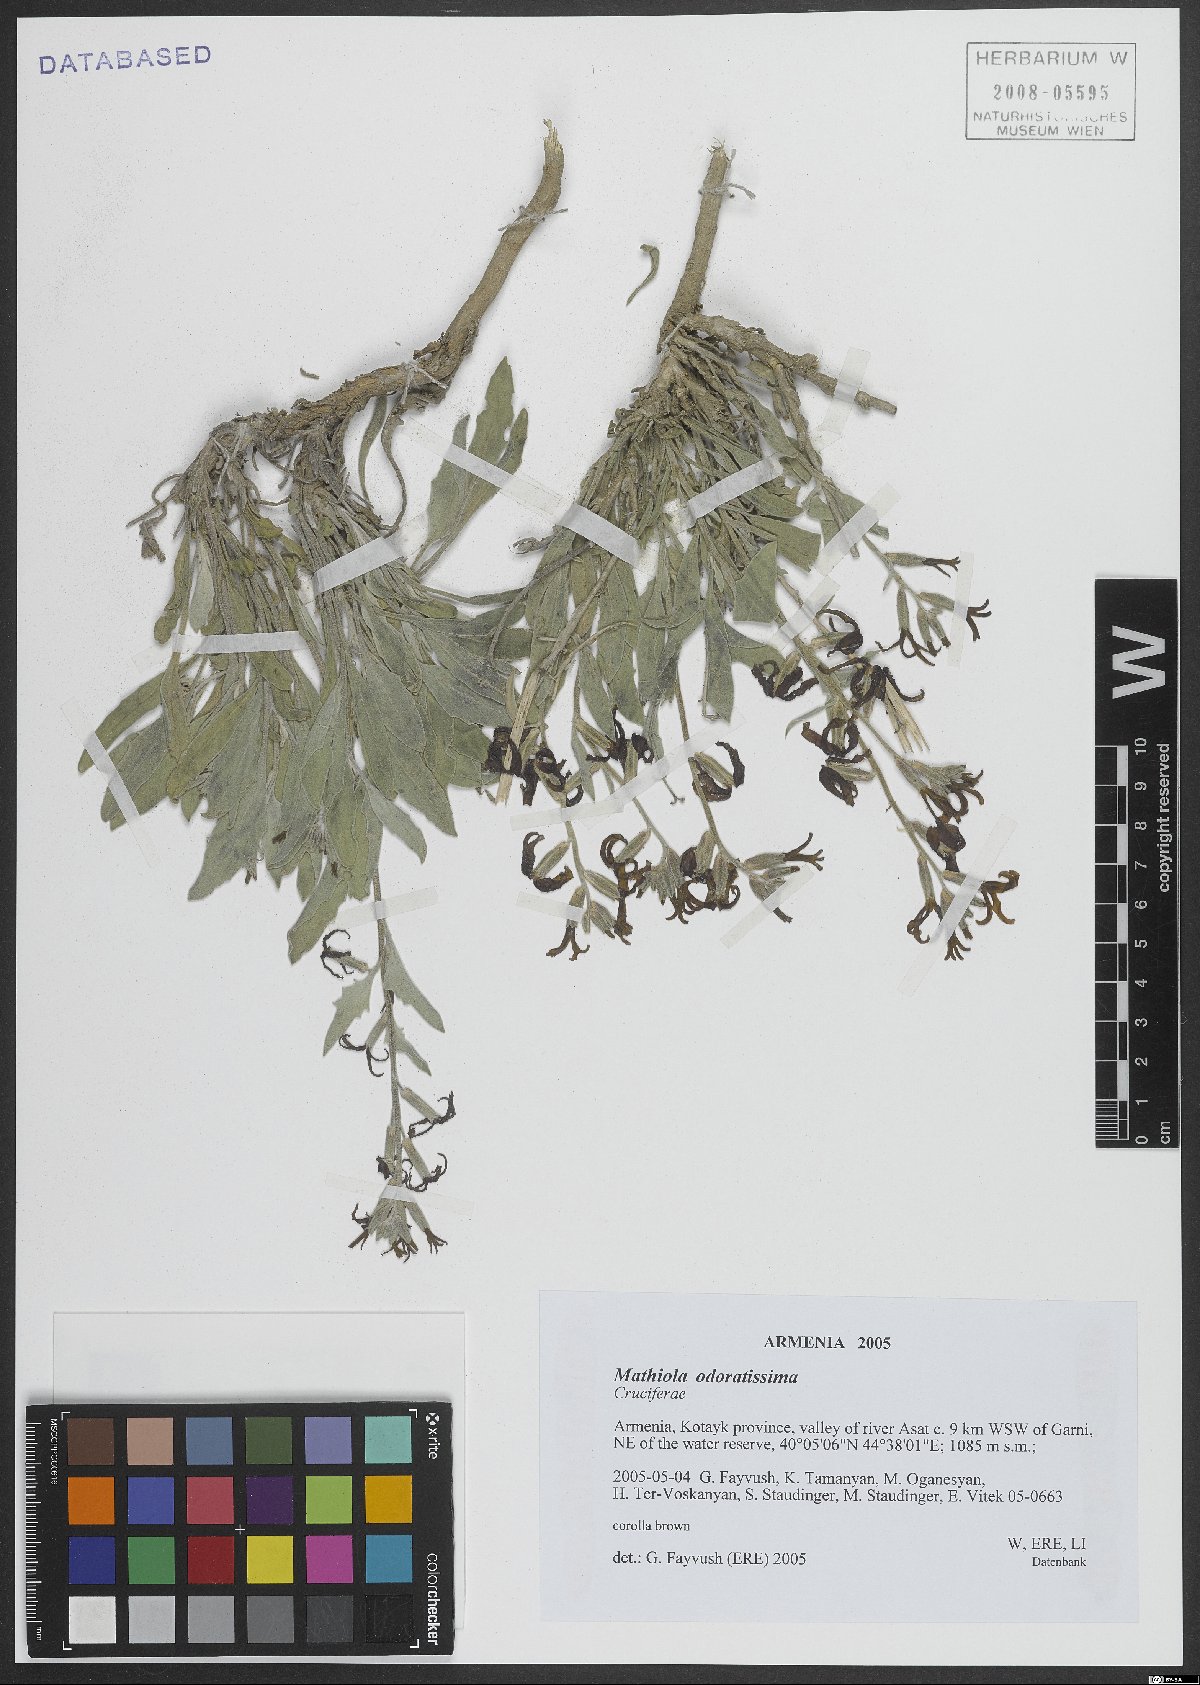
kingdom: Plantae
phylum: Tracheophyta
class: Magnoliopsida
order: Brassicales
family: Brassicaceae
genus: Matthiola
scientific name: Matthiola spathulata
